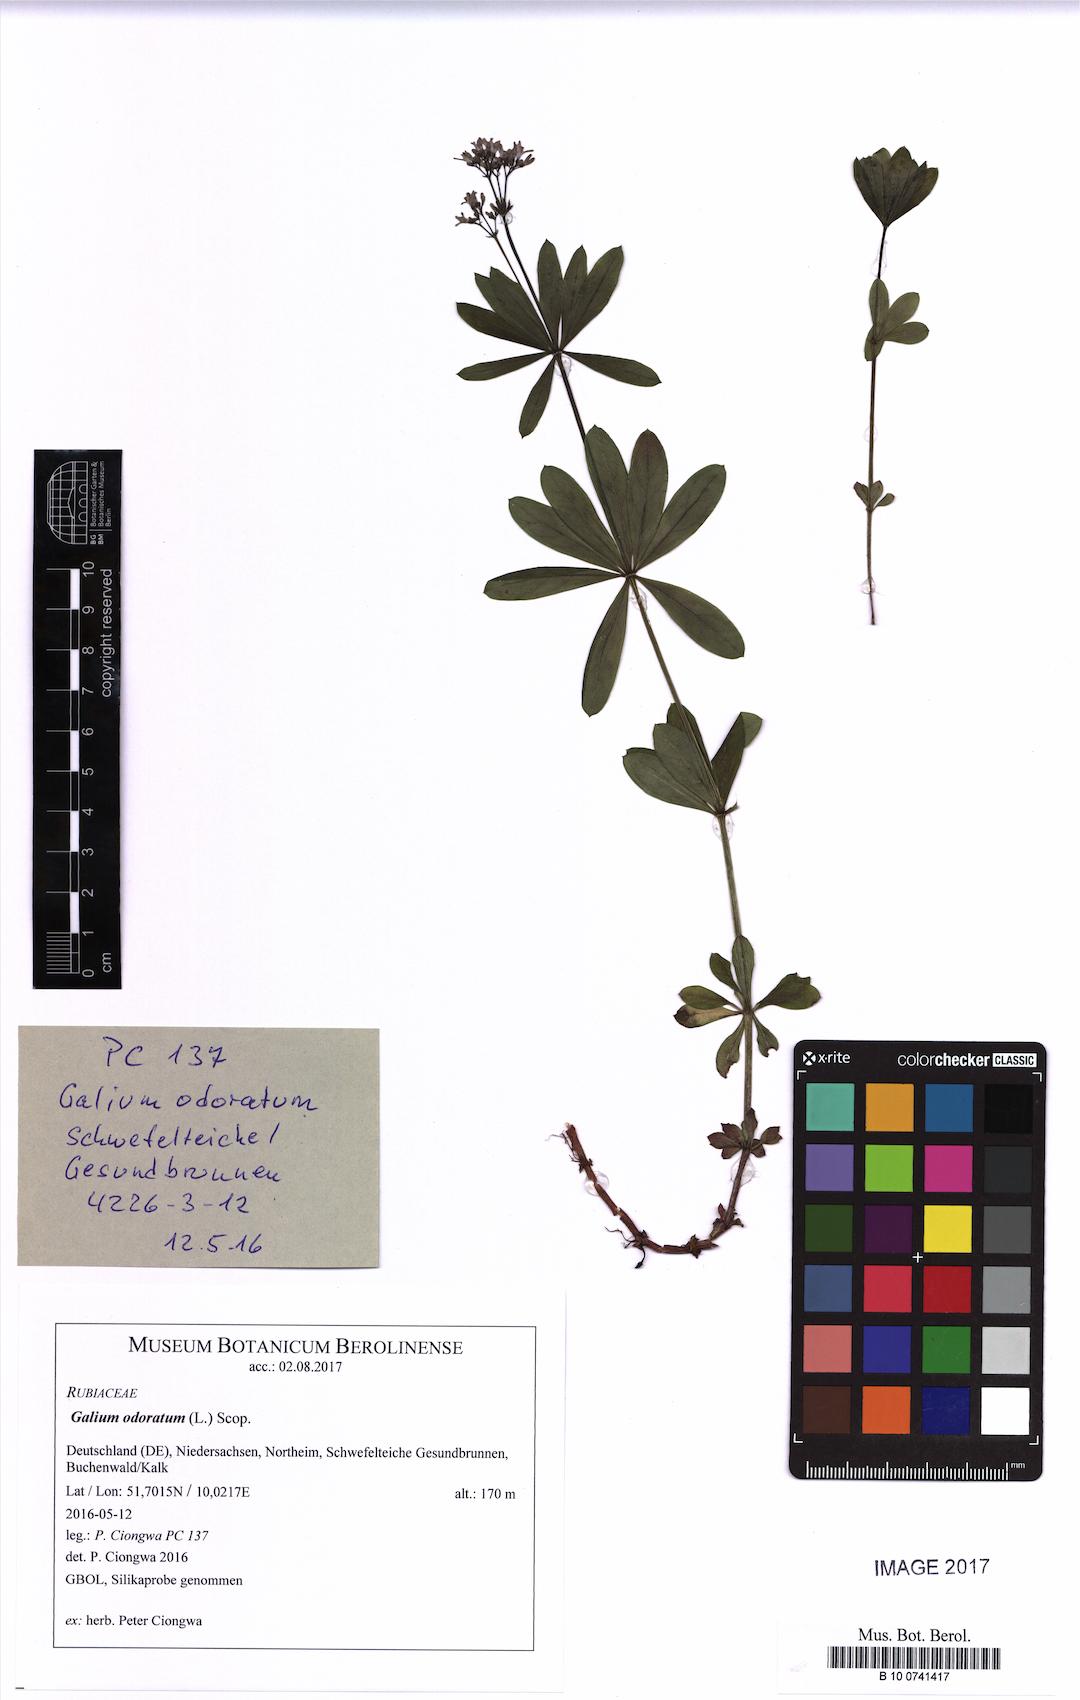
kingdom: Plantae
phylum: Tracheophyta
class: Magnoliopsida
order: Gentianales
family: Rubiaceae
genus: Galium
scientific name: Galium odoratum
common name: Sweet woodruff
